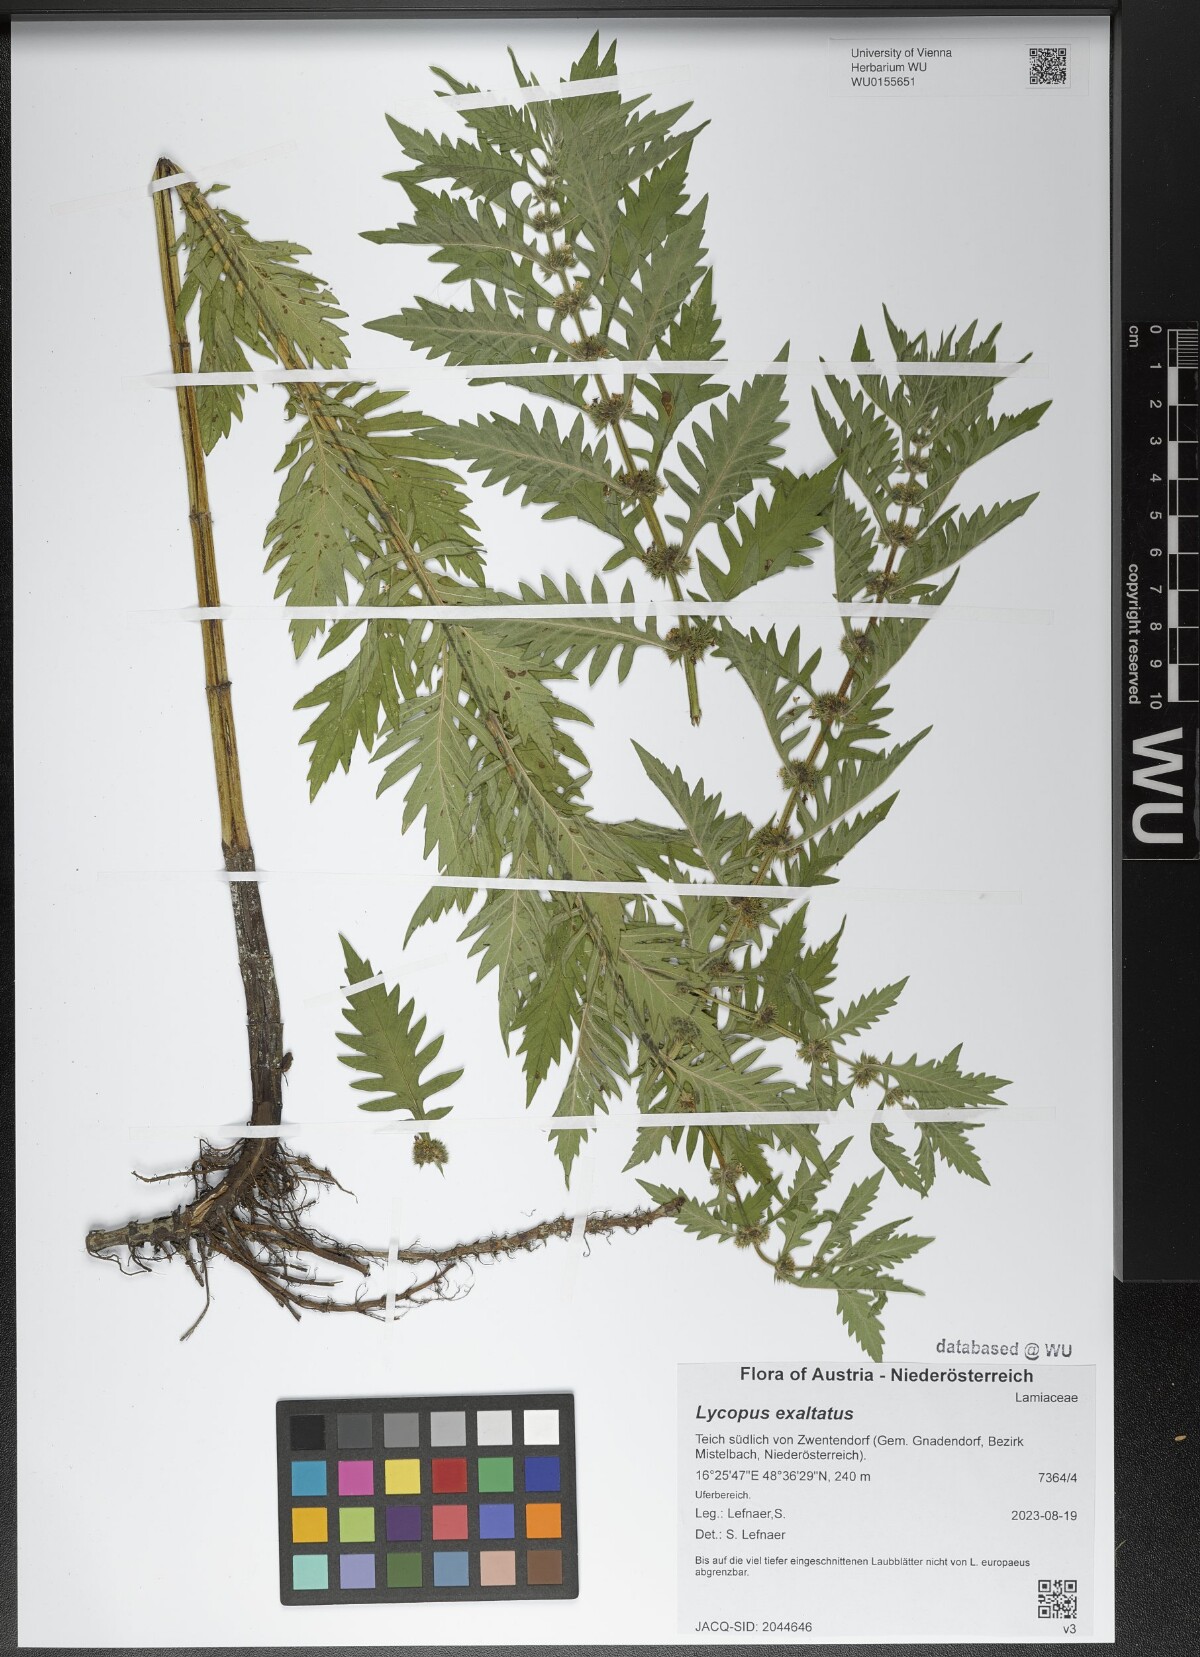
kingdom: Plantae
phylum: Tracheophyta
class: Magnoliopsida
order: Lamiales
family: Lamiaceae
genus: Lycopus
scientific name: Lycopus exaltatus
